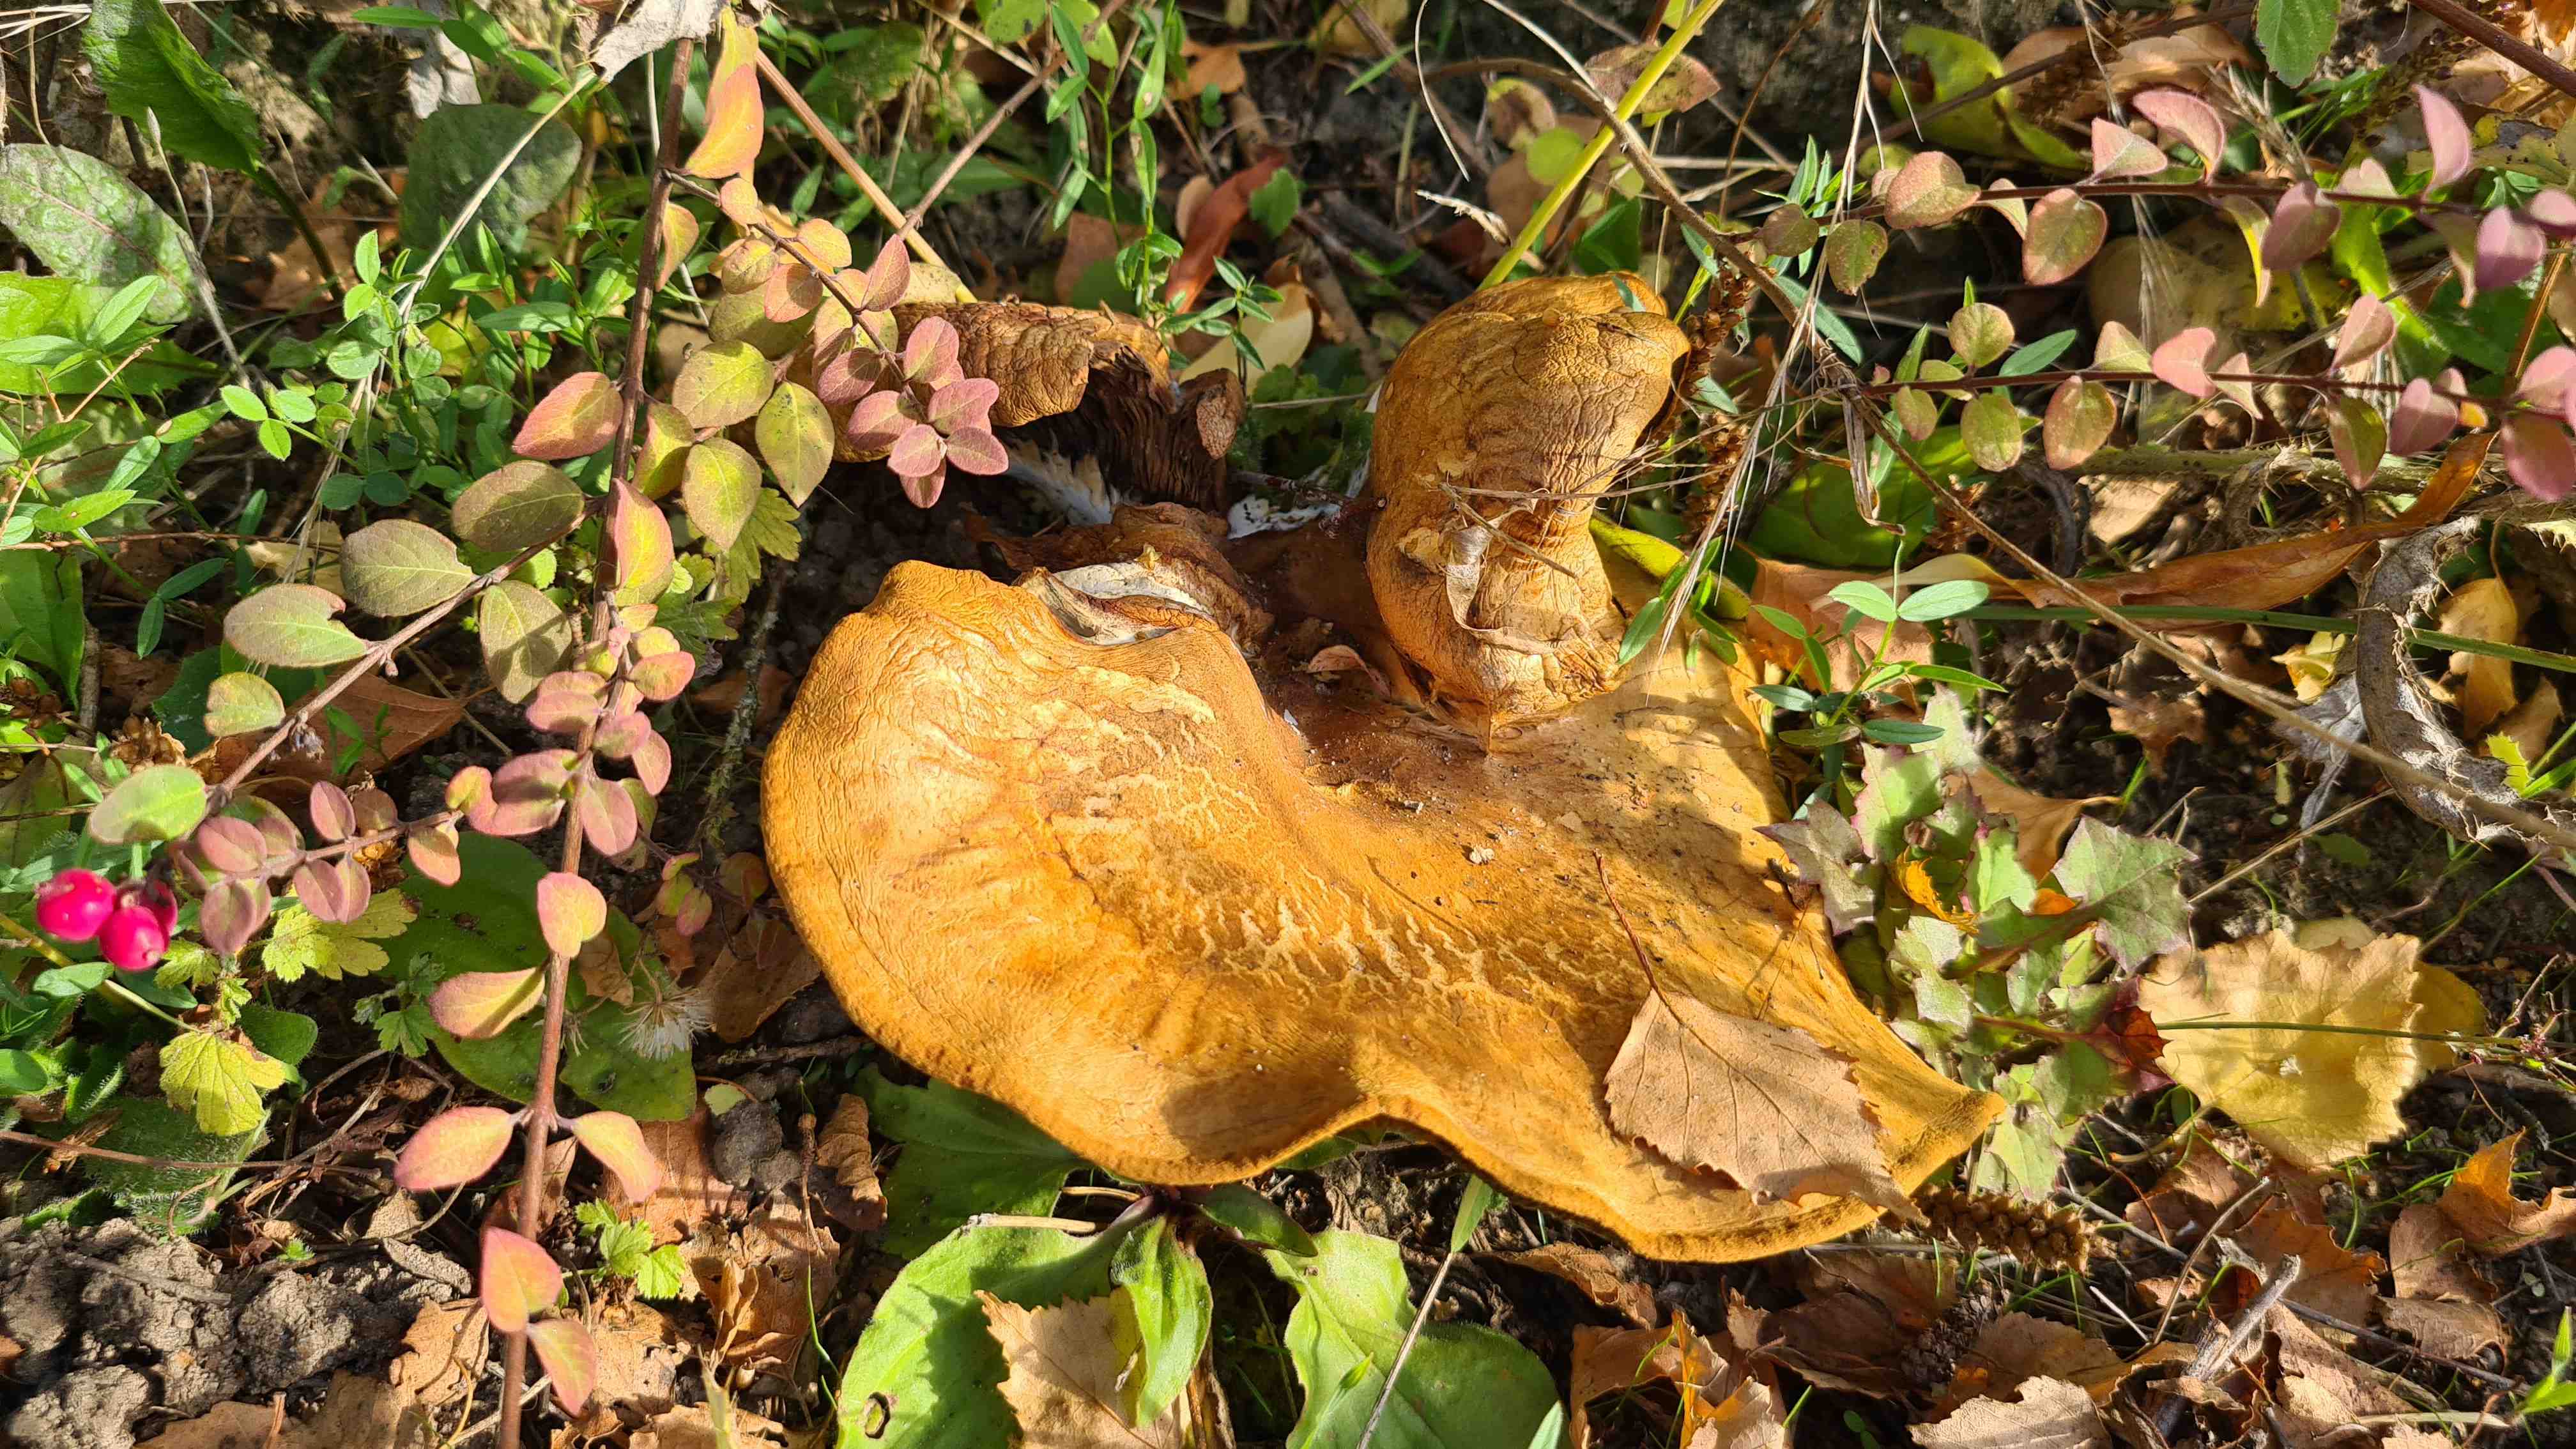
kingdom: Fungi
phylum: Basidiomycota
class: Agaricomycetes
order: Boletales
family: Paxillaceae
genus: Paxillus
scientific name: Paxillus involutus
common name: almindelig netbladhat
